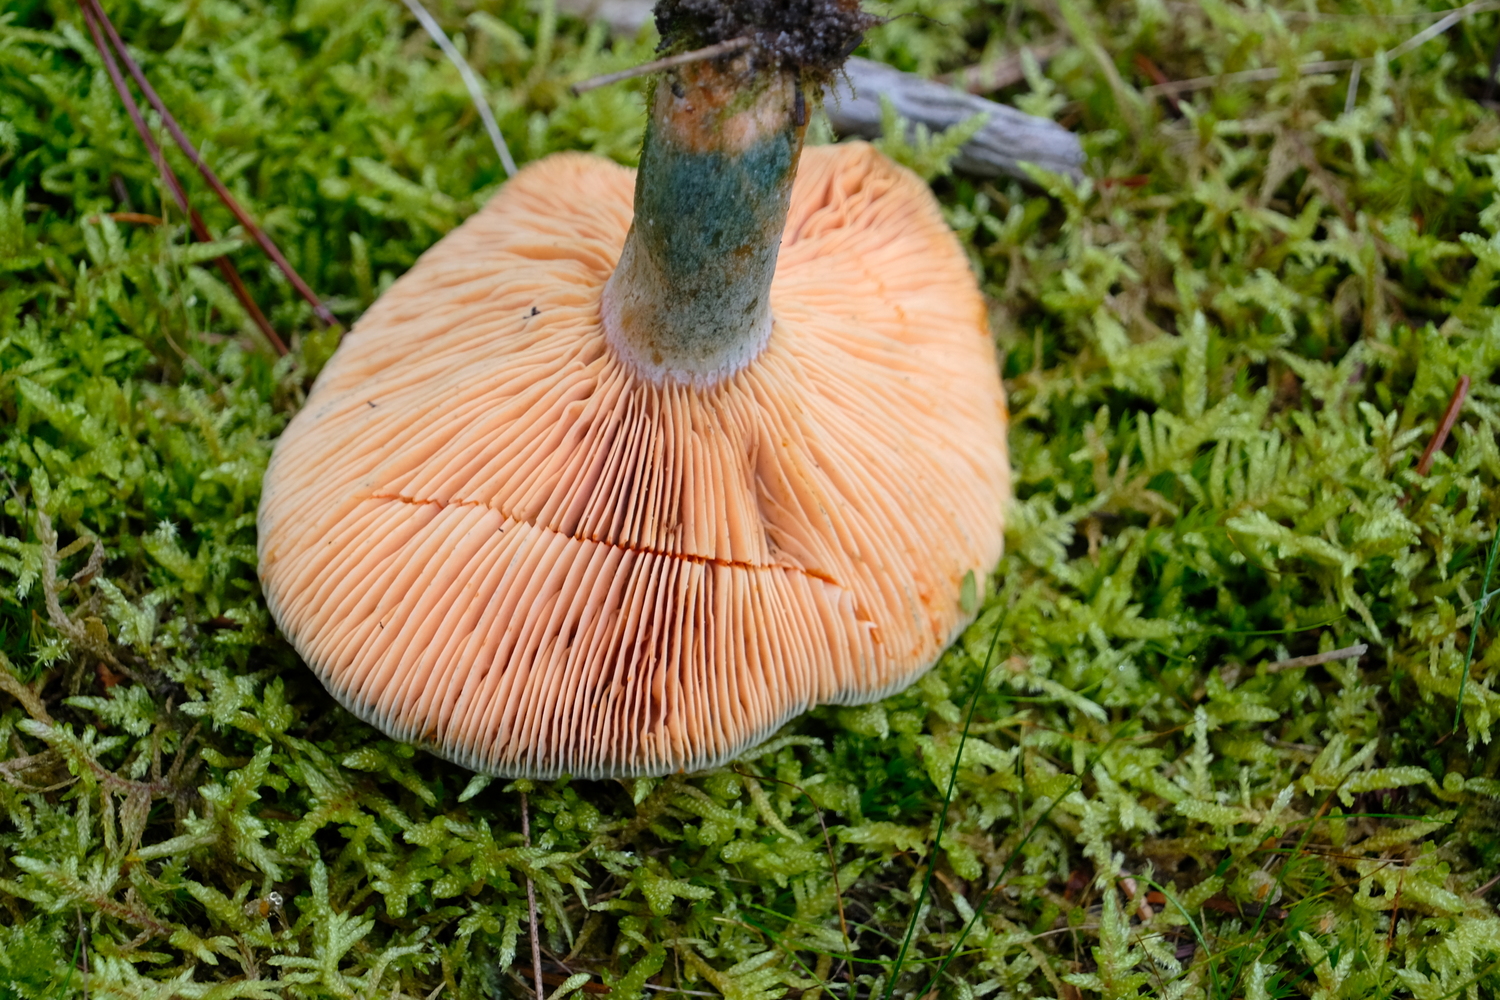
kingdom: Fungi
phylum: Basidiomycota
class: Agaricomycetes
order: Russulales
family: Russulaceae
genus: Lactarius
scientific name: Lactarius deterrimus
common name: gran-mælkehat
